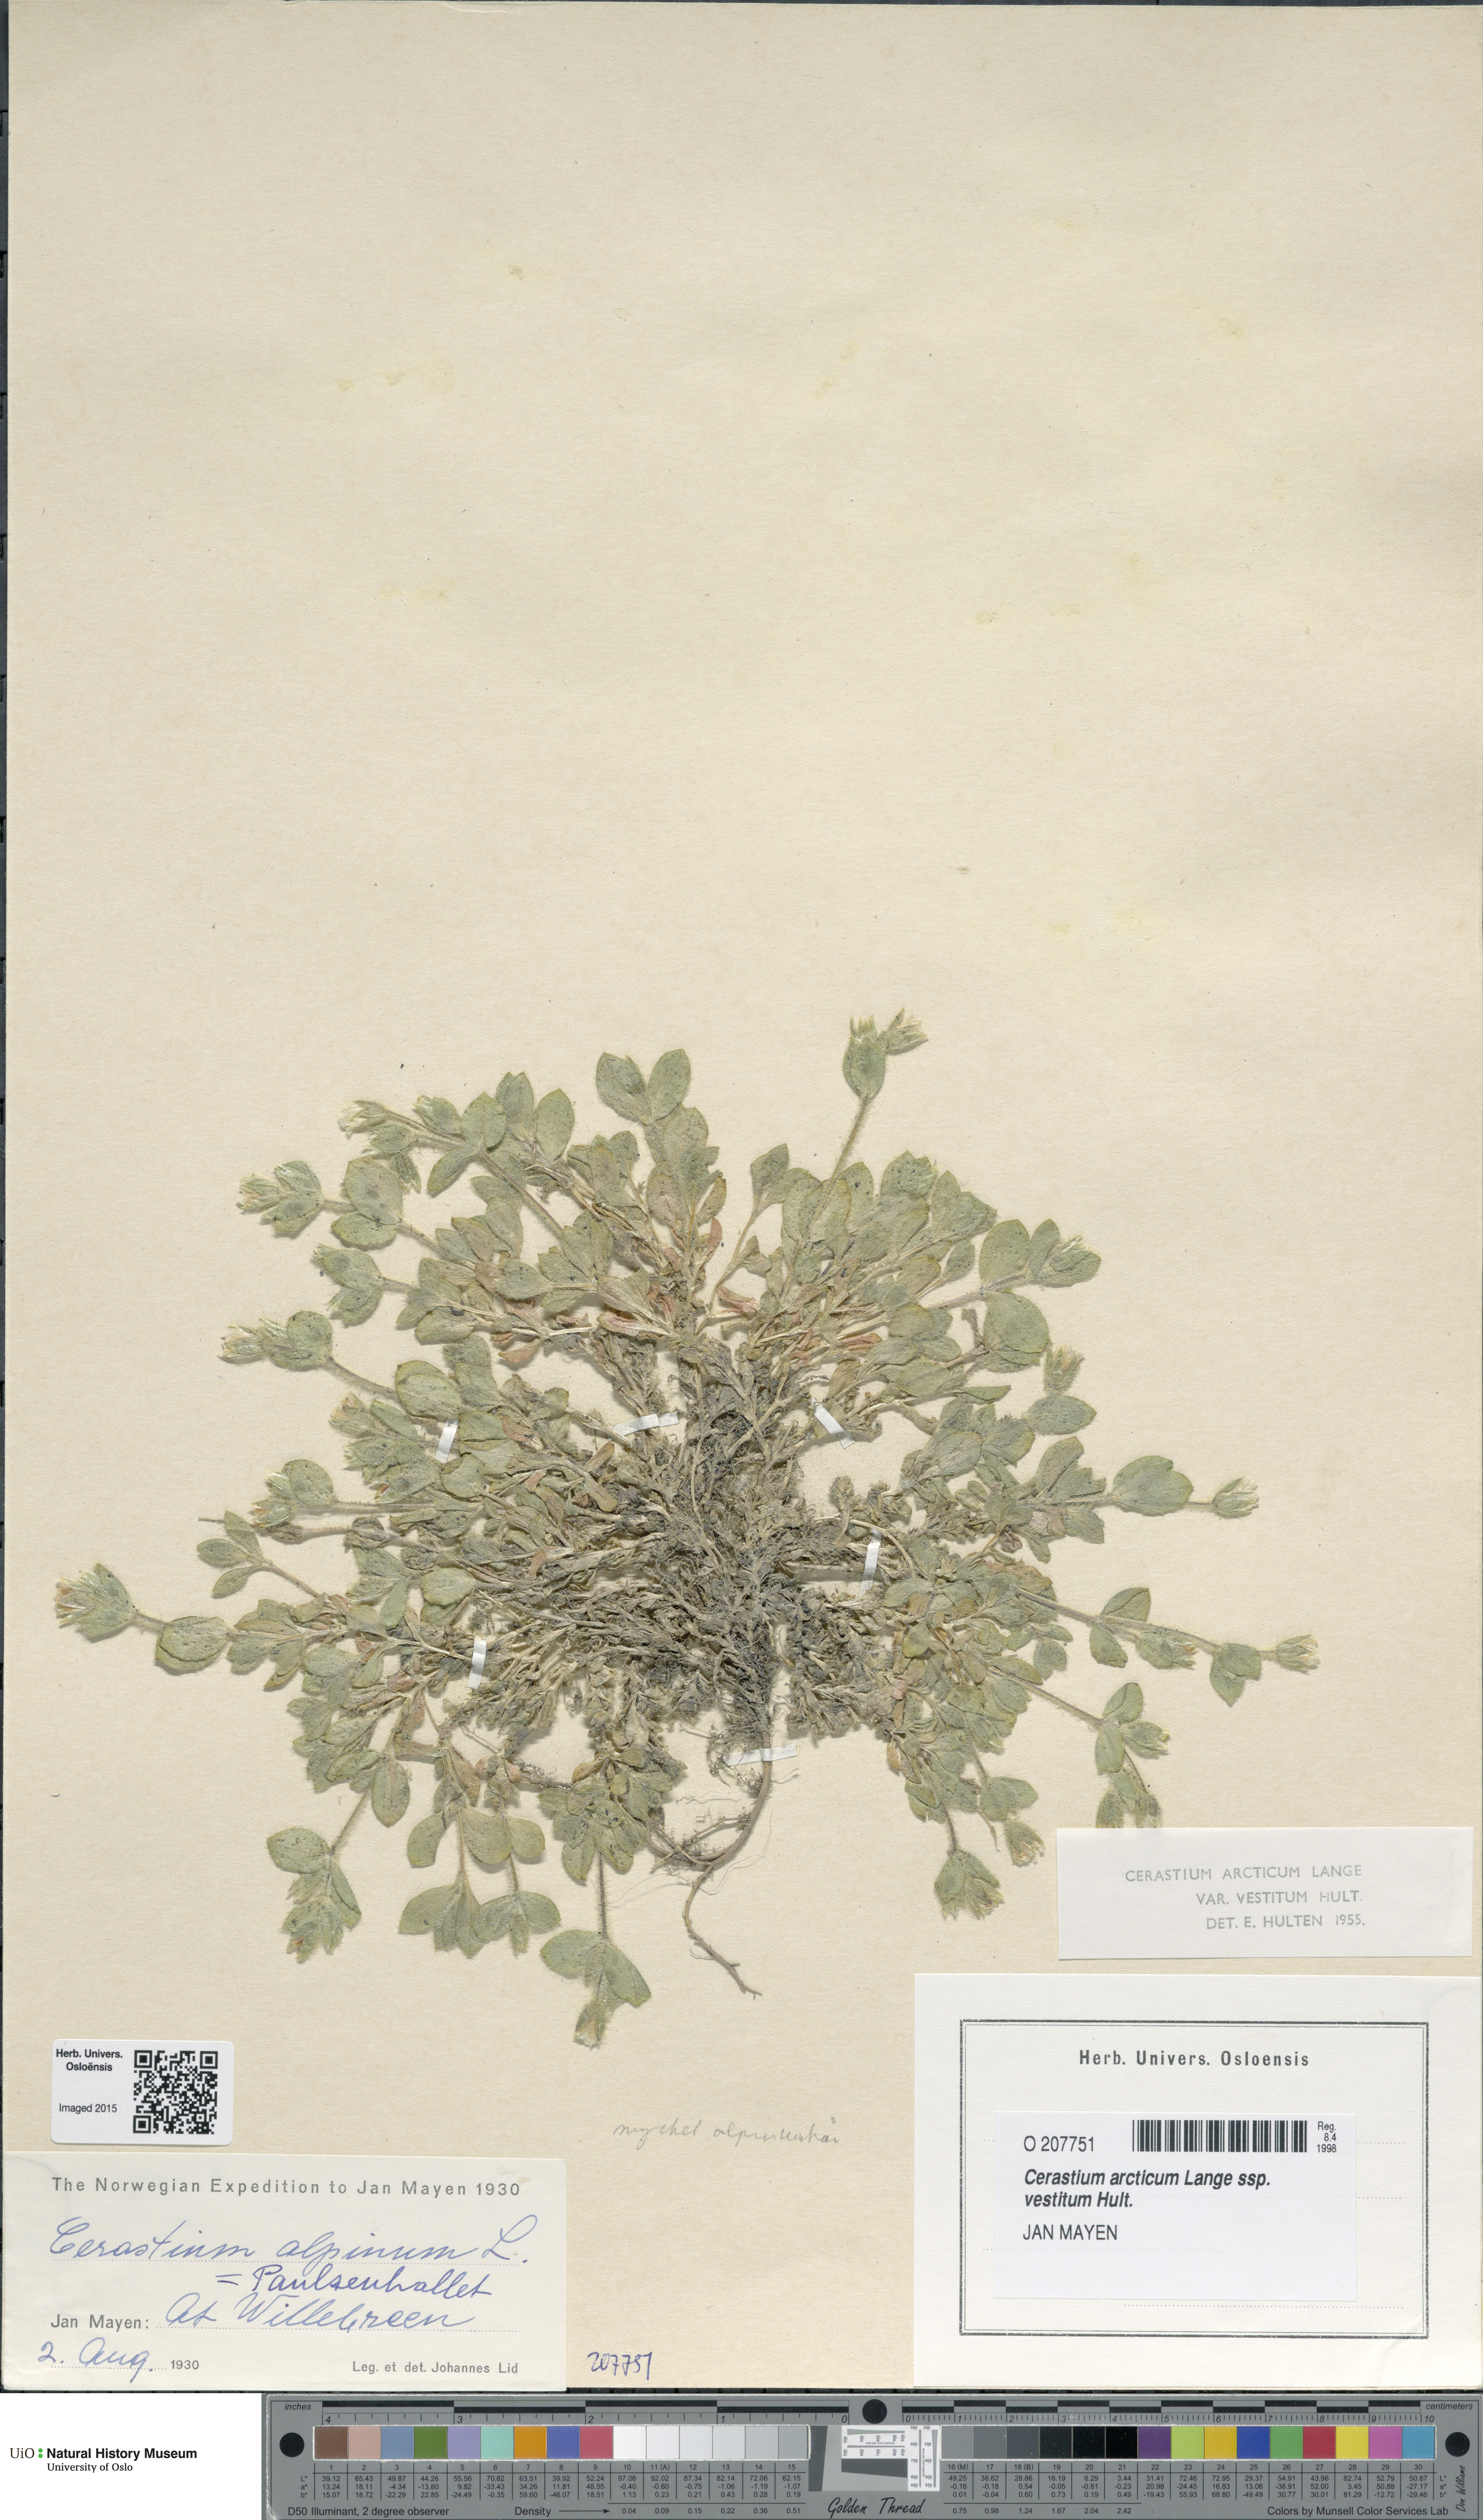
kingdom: Plantae
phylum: Tracheophyta
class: Magnoliopsida
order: Caryophyllales
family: Caryophyllaceae
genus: Cerastium
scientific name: Cerastium arcticum
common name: Arctic mouse-ear
